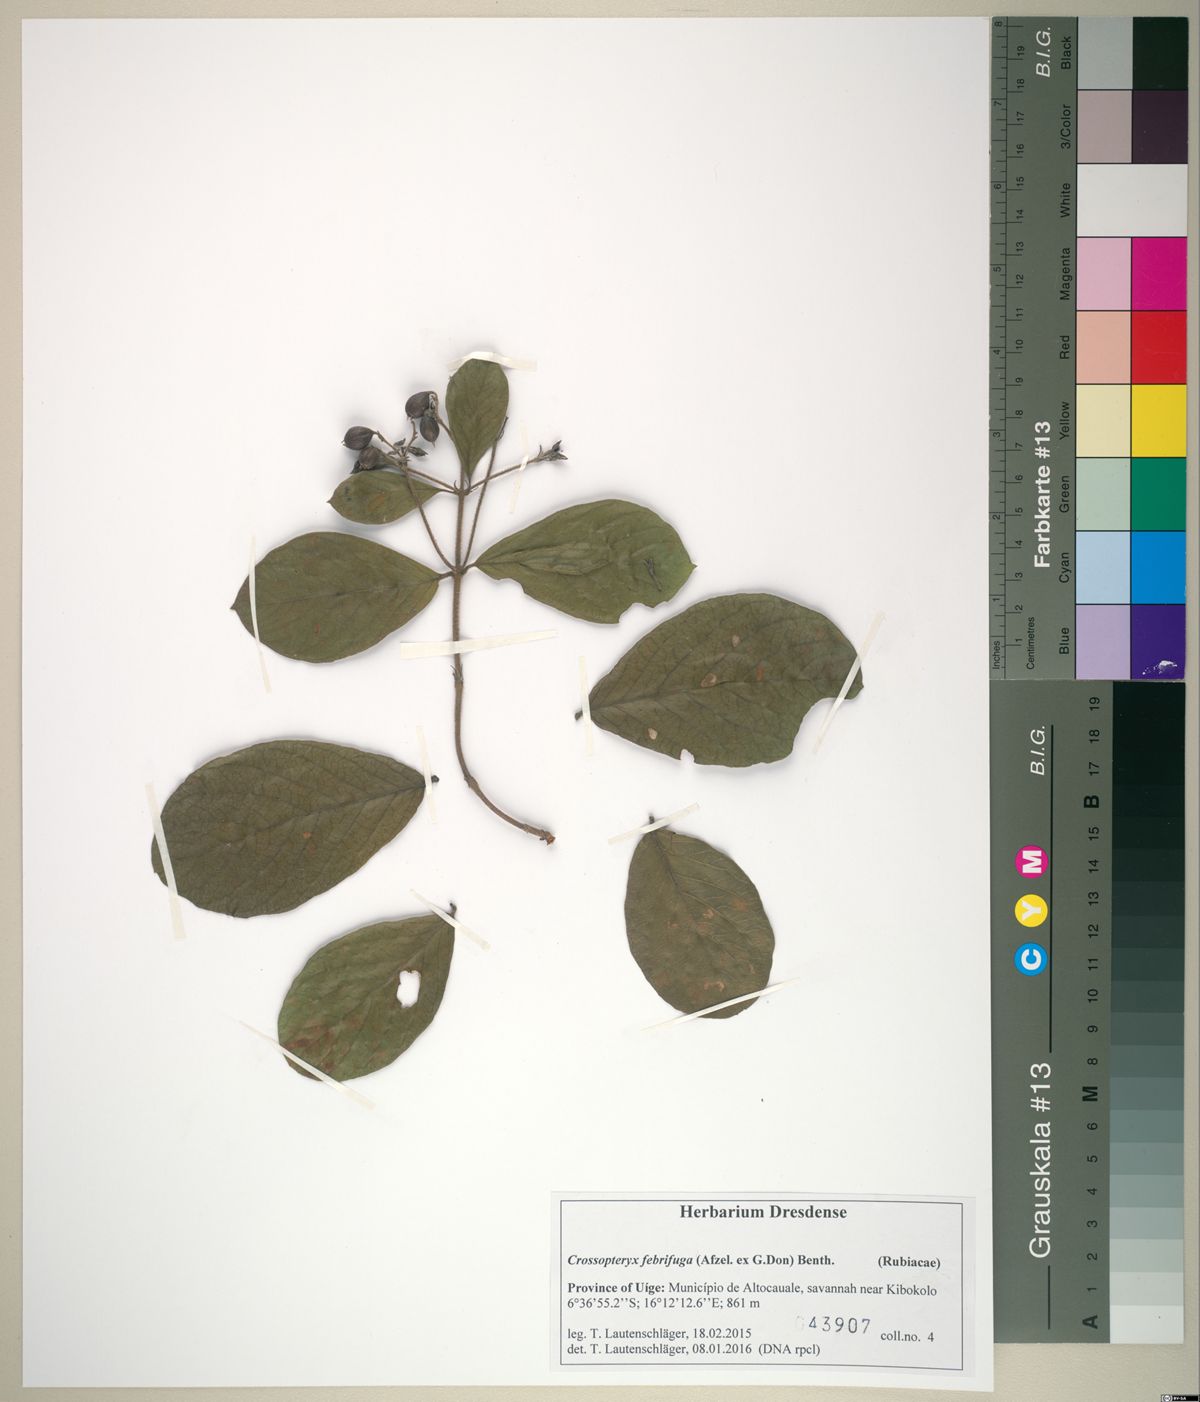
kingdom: Plantae
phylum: Tracheophyta
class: Magnoliopsida
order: Gentianales
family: Rubiaceae
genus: Crossopteryx
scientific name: Crossopteryx febrifuga
